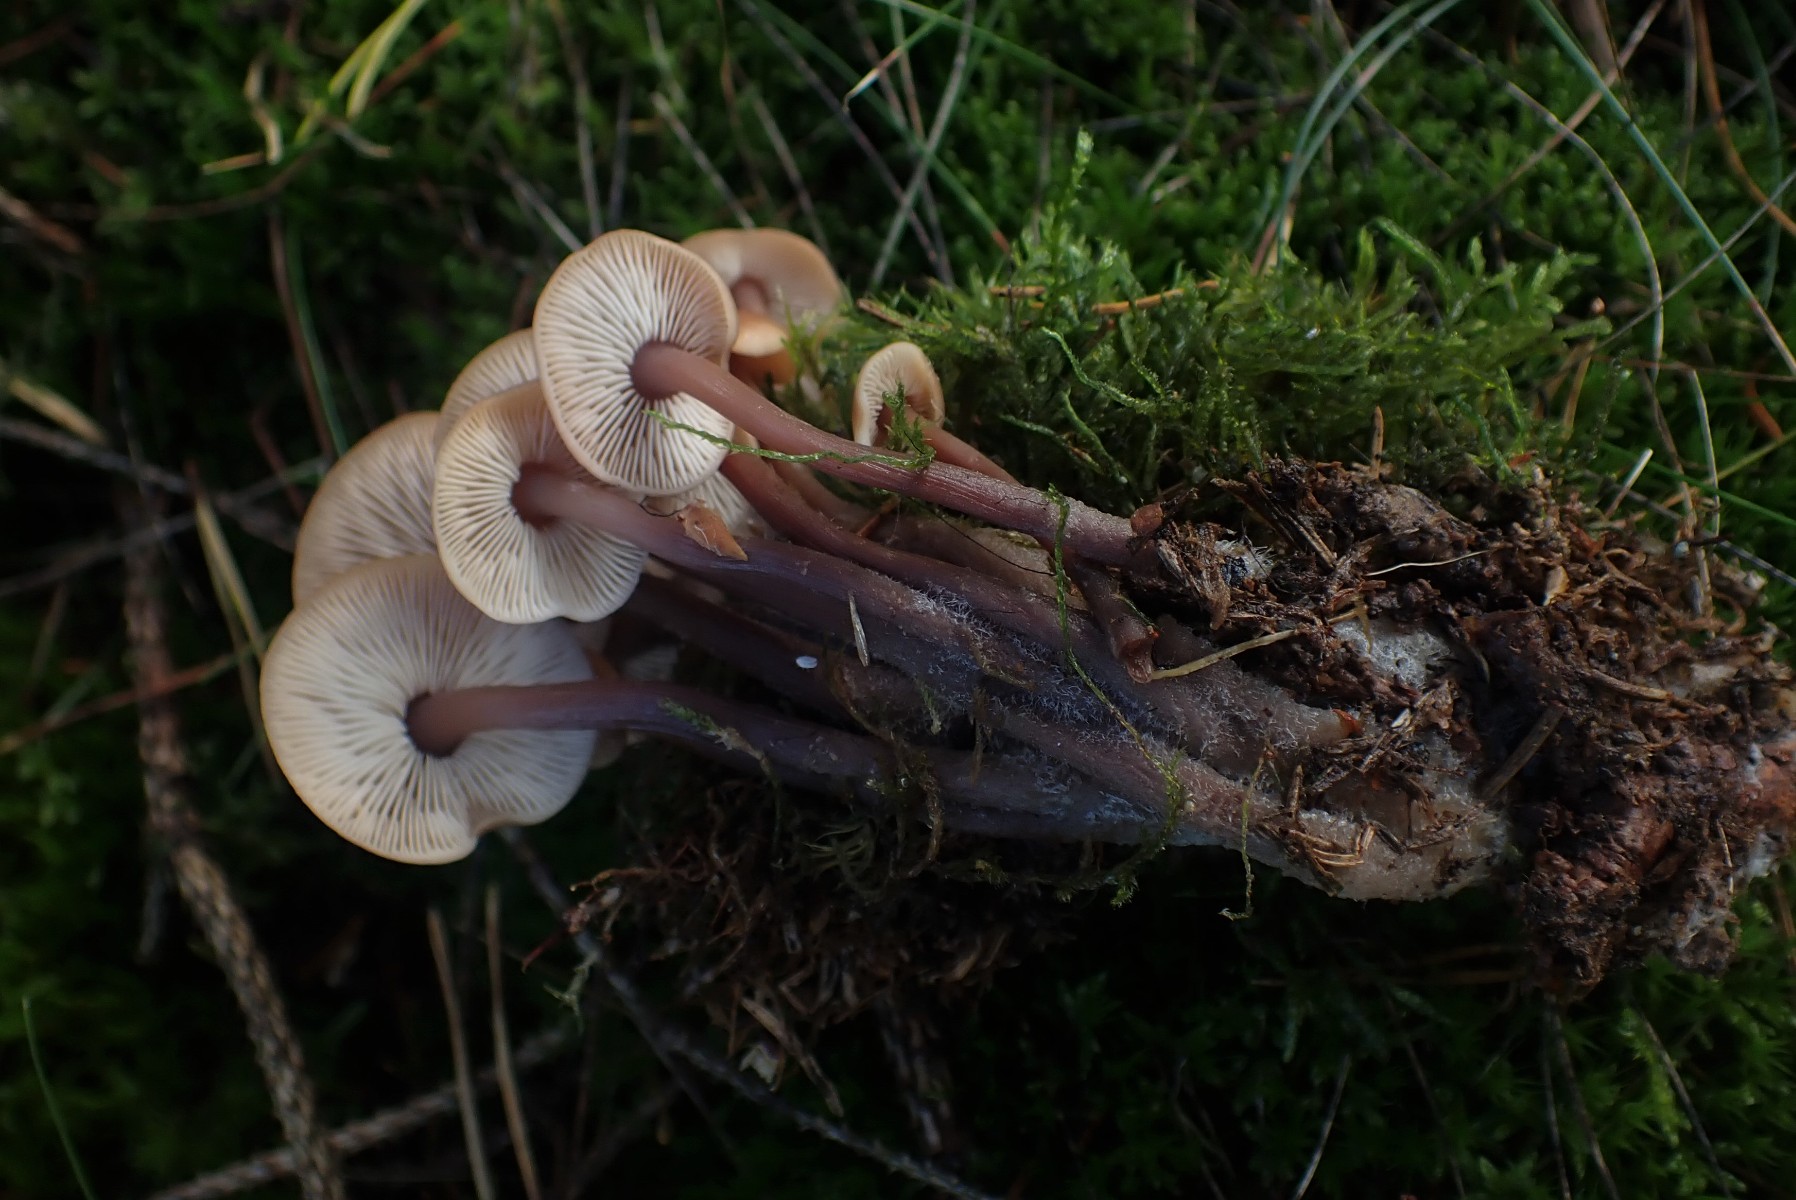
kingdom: Fungi
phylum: Basidiomycota
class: Agaricomycetes
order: Agaricales
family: Omphalotaceae
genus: Connopus
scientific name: Connopus acervatus
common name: tue-fladhat
